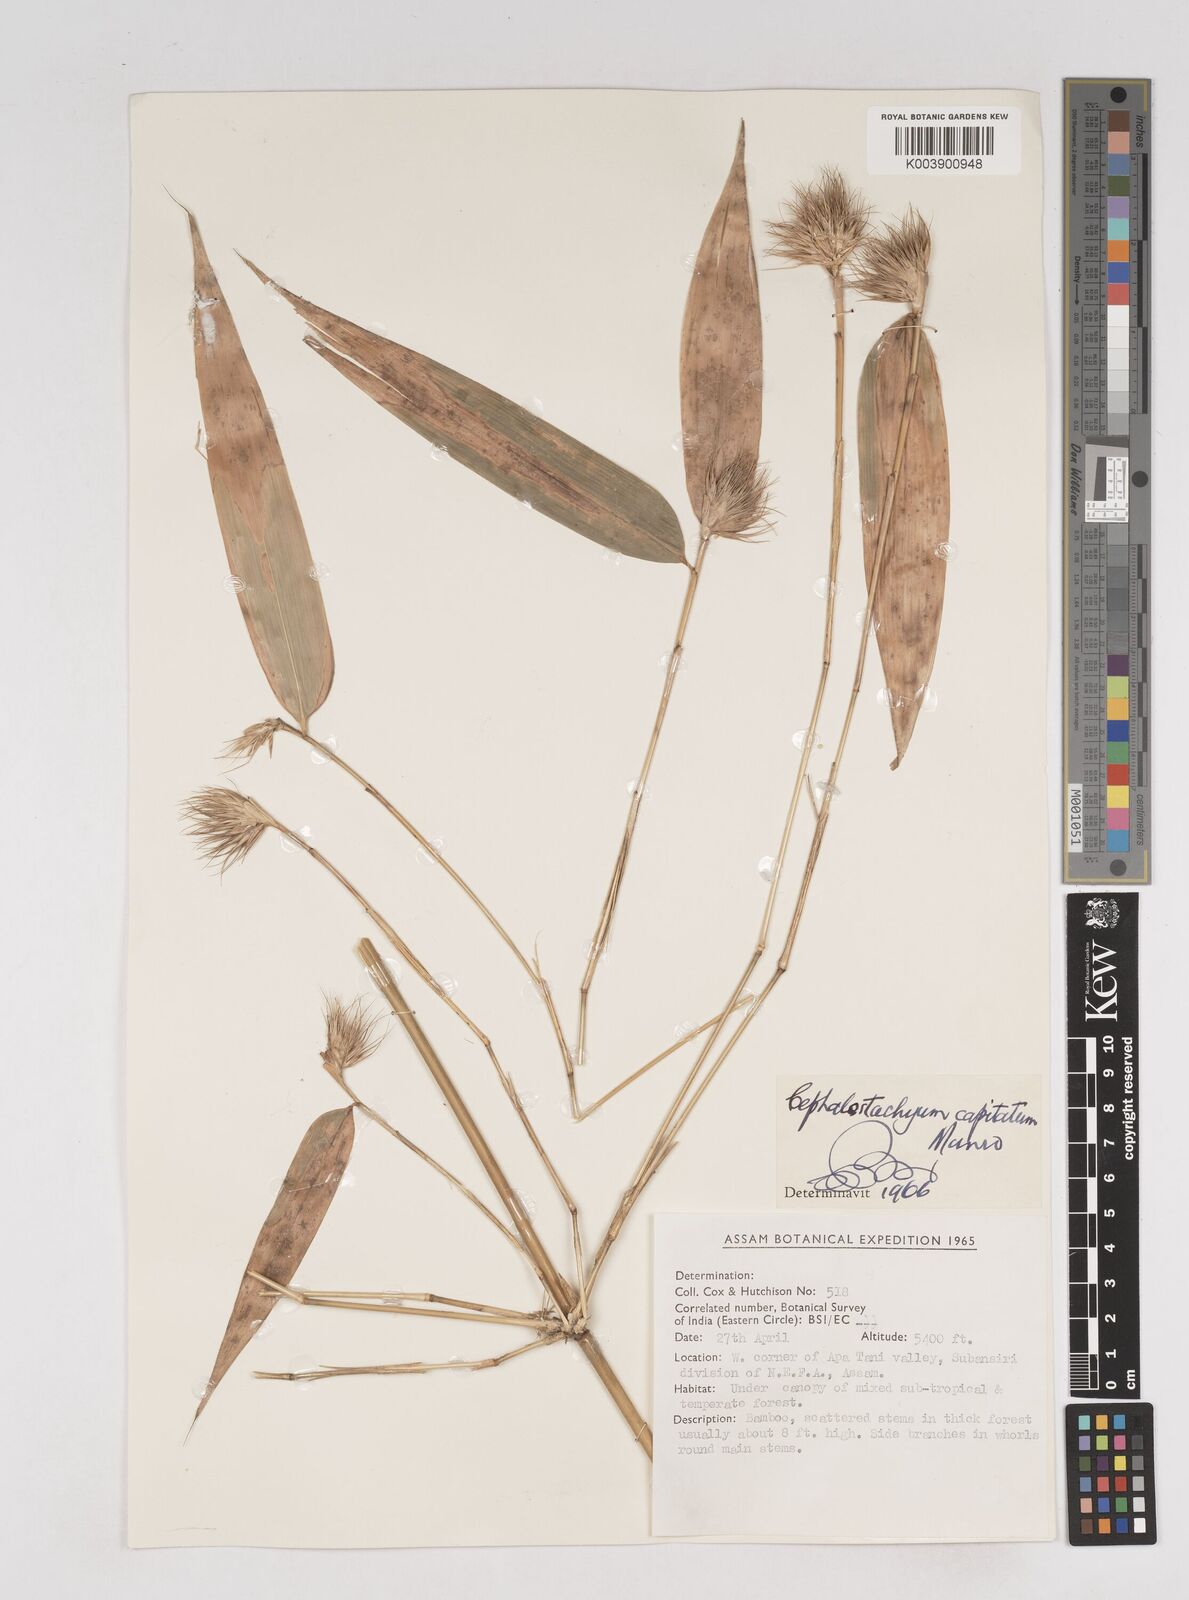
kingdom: Plantae
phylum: Tracheophyta
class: Liliopsida
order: Poales
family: Poaceae
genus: Cephalostachyum
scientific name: Cephalostachyum capitatum
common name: Hollow bamboo
